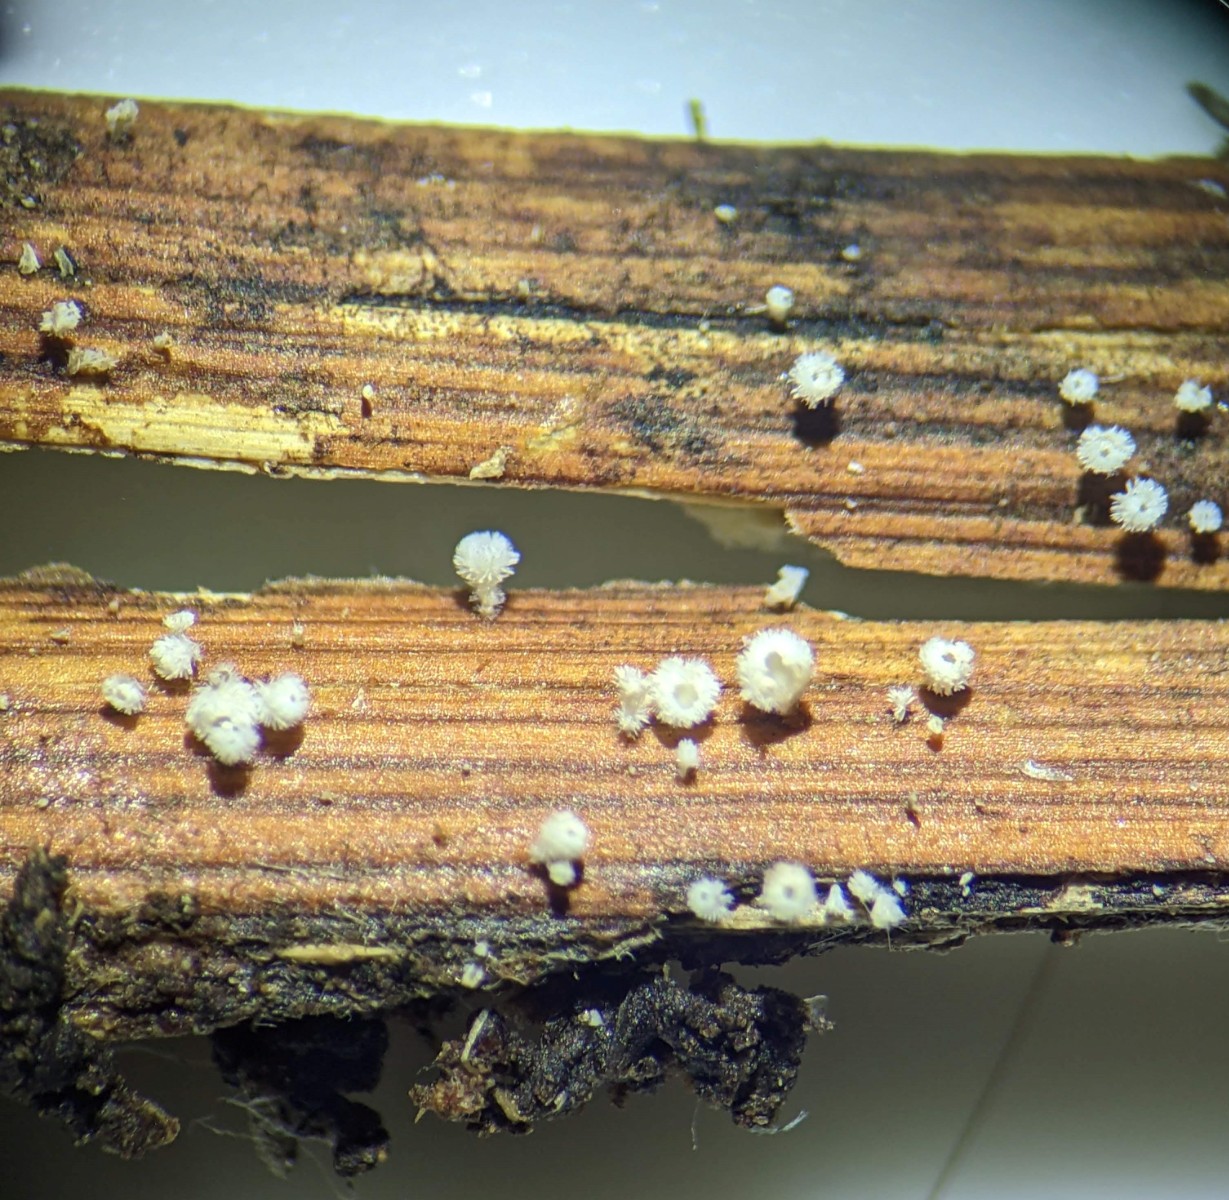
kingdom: Fungi
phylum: Ascomycota
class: Leotiomycetes
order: Helotiales
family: Lachnaceae
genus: Lachnum
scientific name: Lachnum virgineum
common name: jomfru-frynseskive
